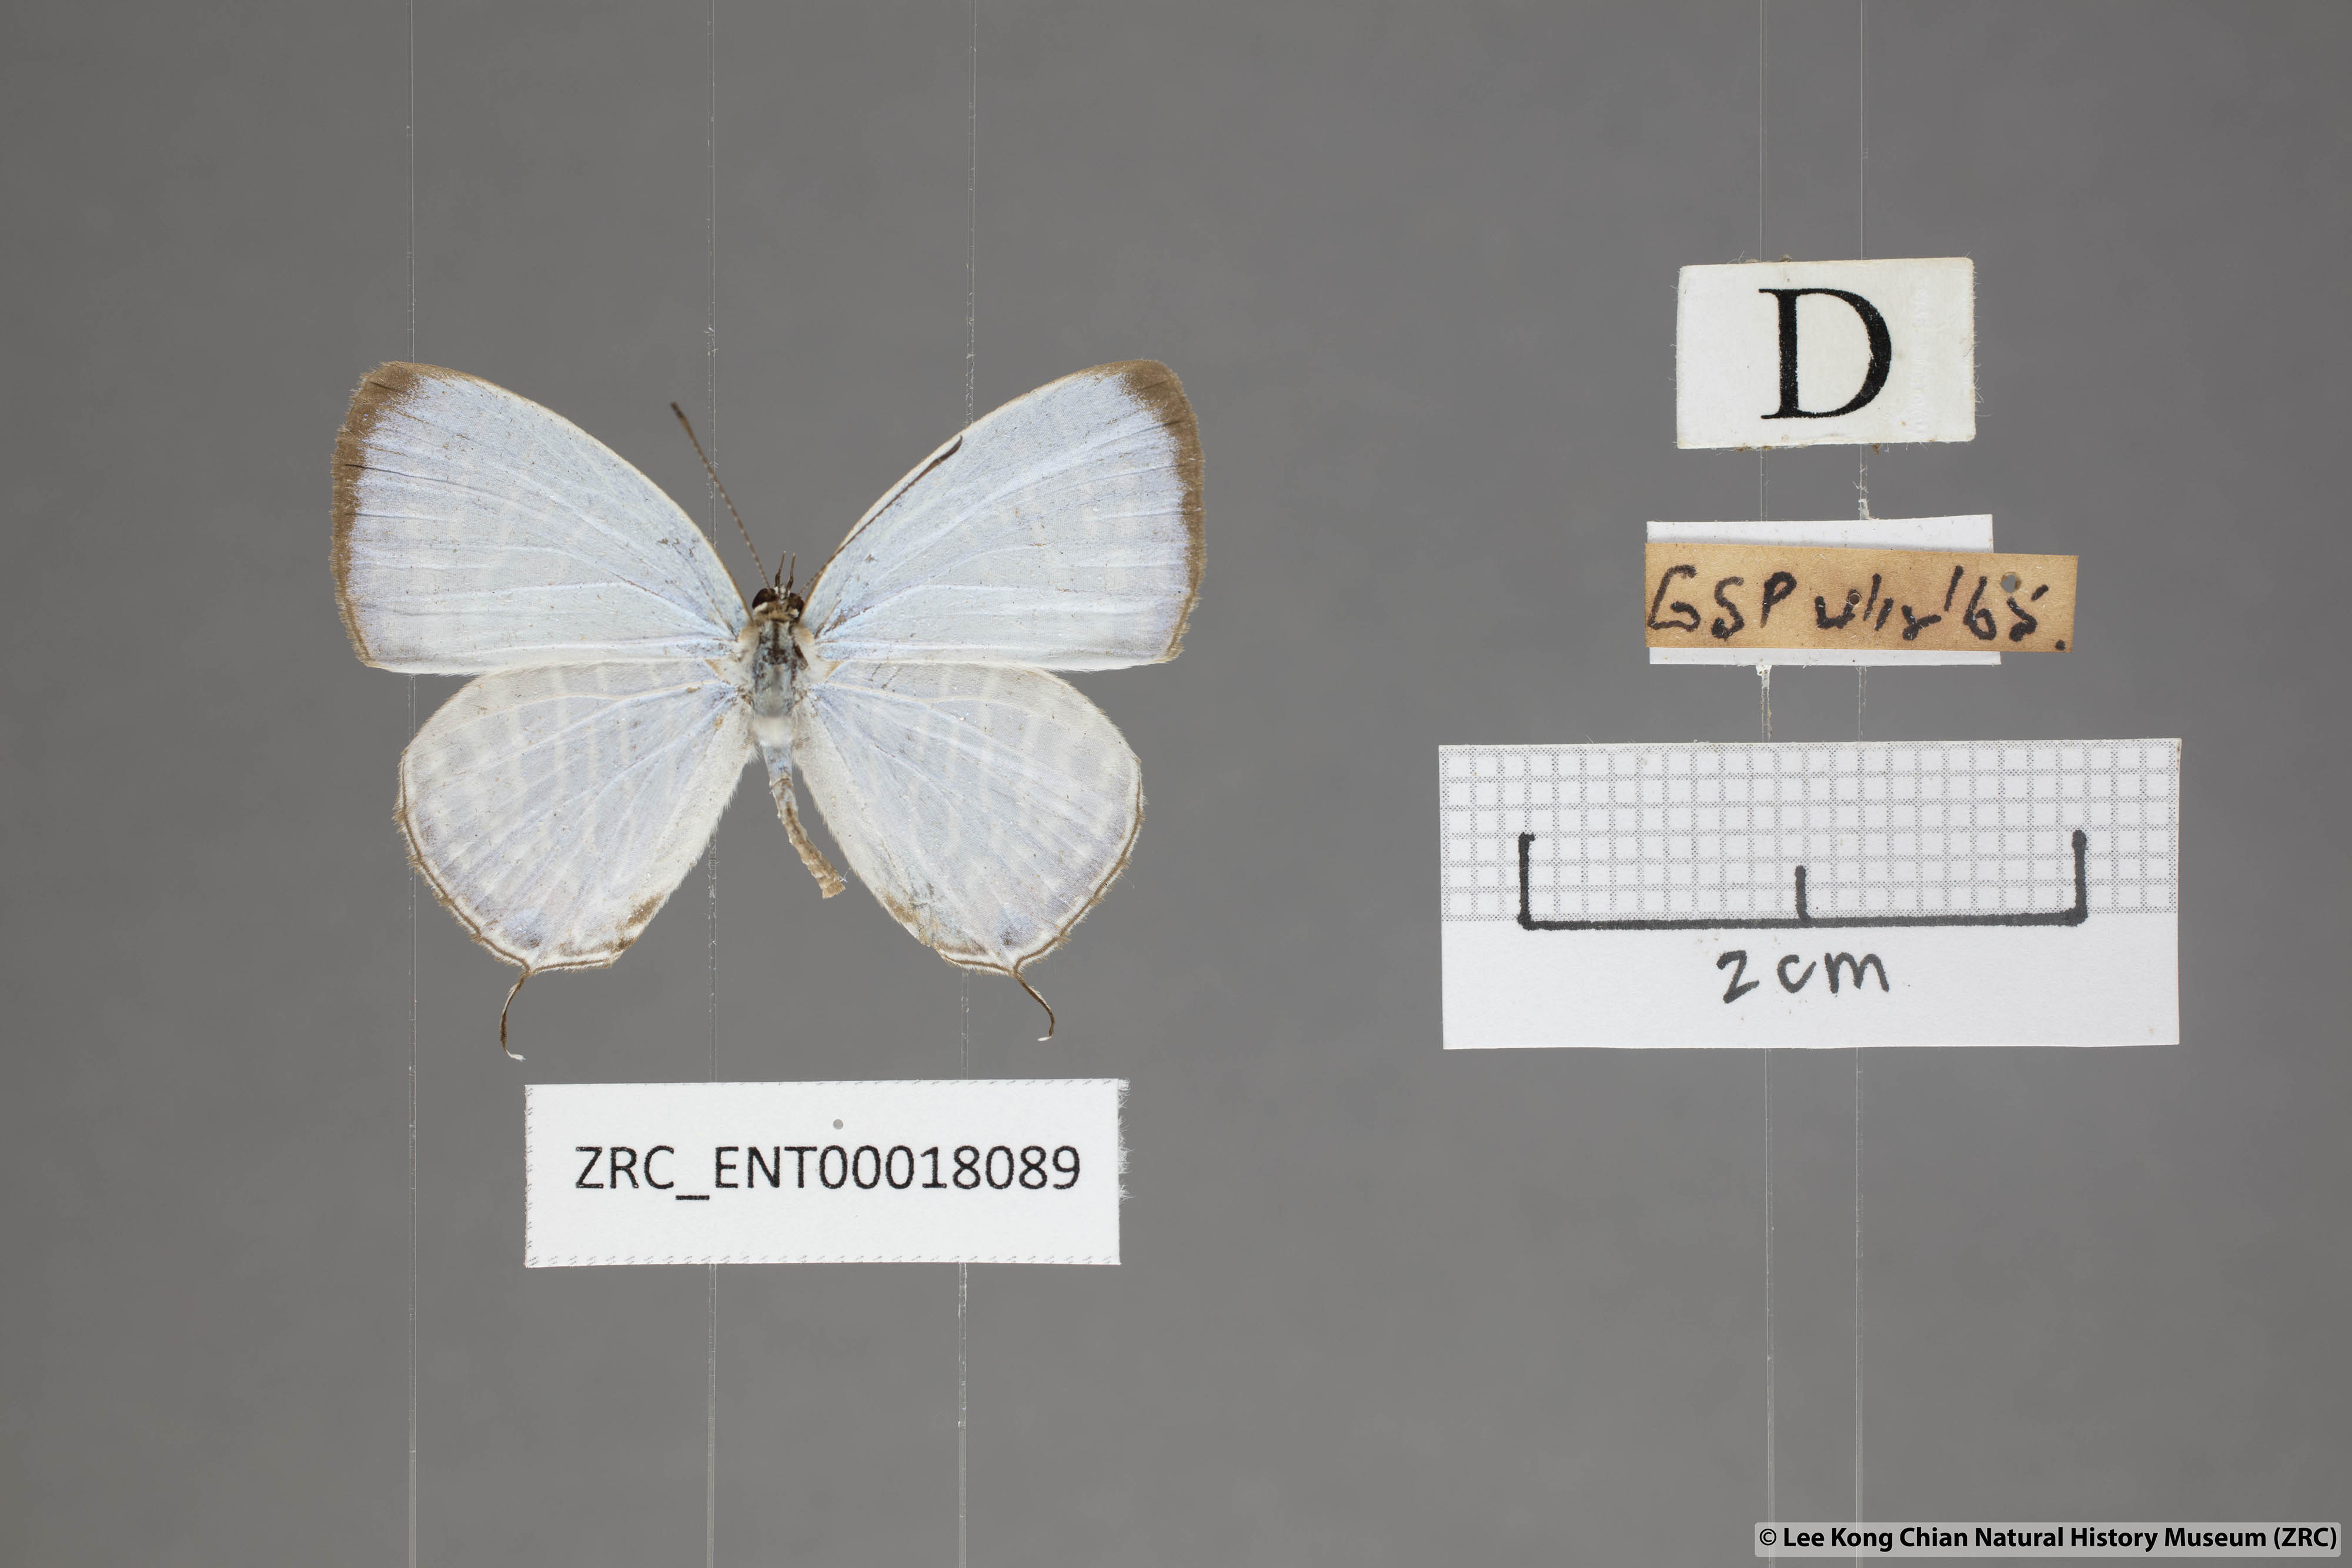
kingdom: Animalia
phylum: Arthropoda
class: Insecta
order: Lepidoptera
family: Lycaenidae
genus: Jamides
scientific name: Jamides celeno
